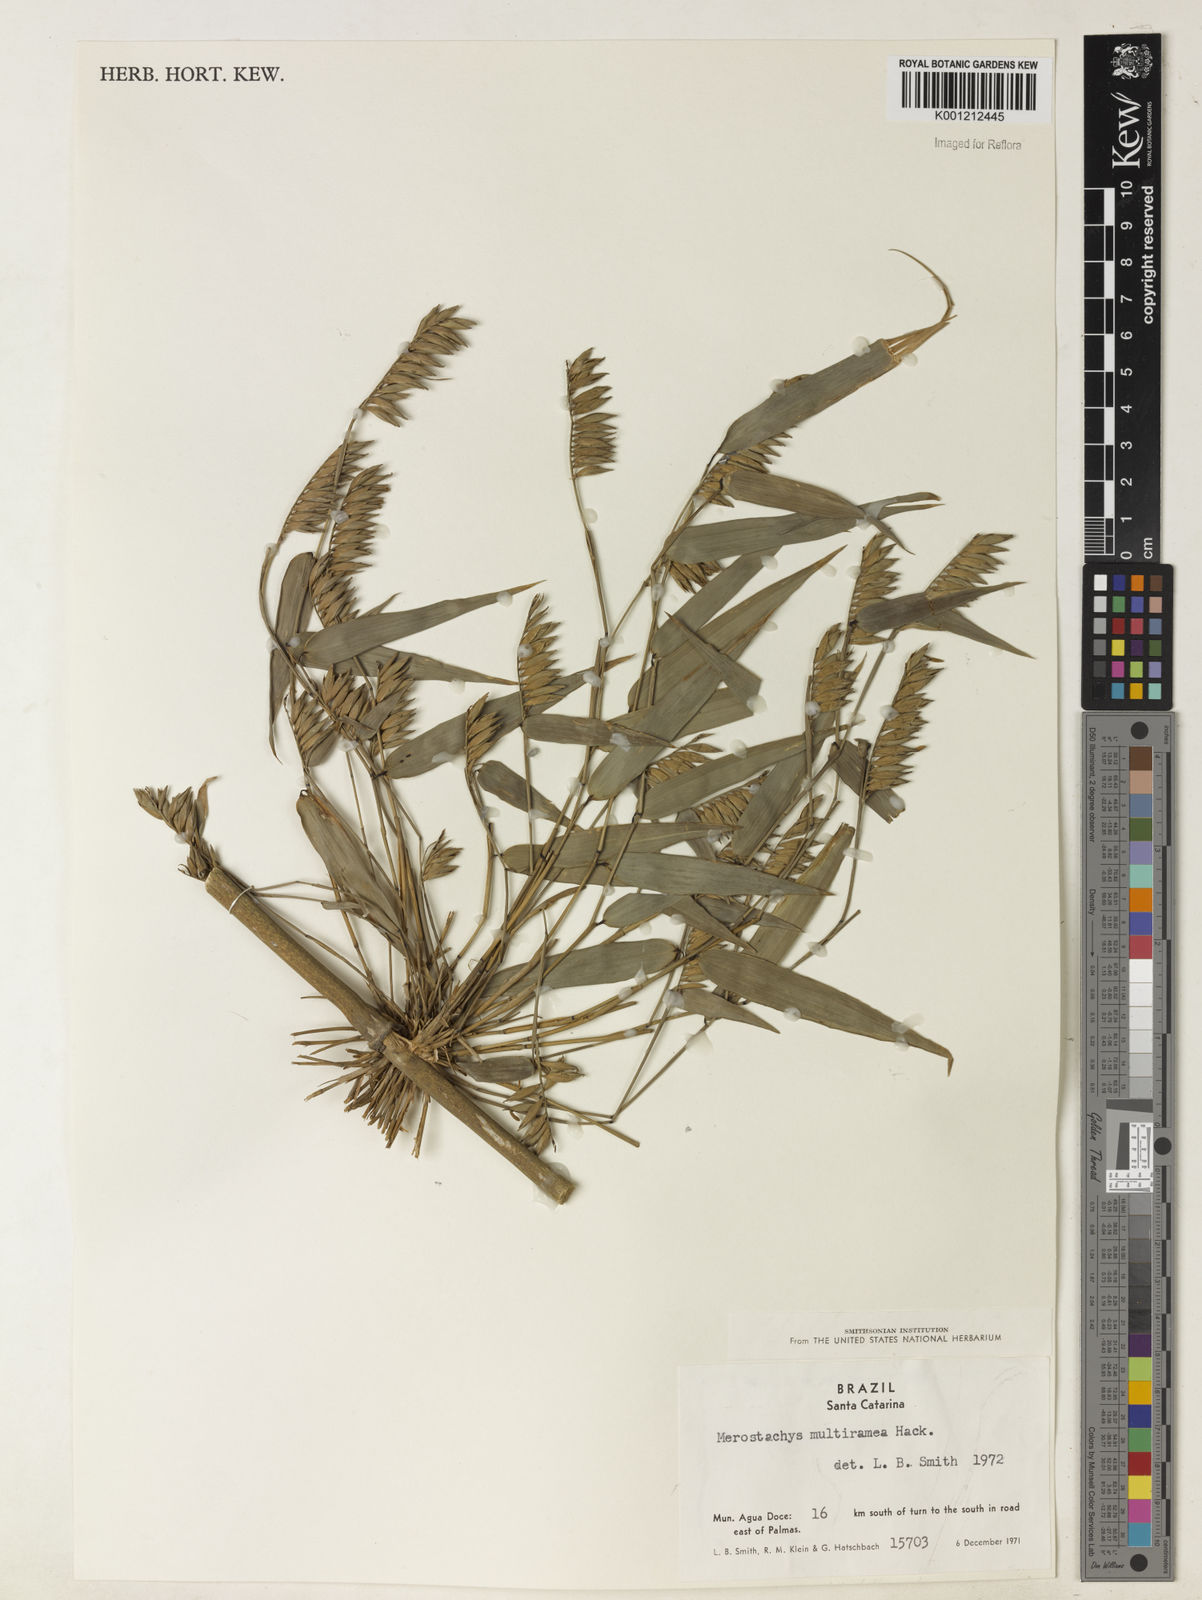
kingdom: Plantae
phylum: Tracheophyta
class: Liliopsida
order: Poales
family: Poaceae
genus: Merostachys
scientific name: Merostachys multiramea
